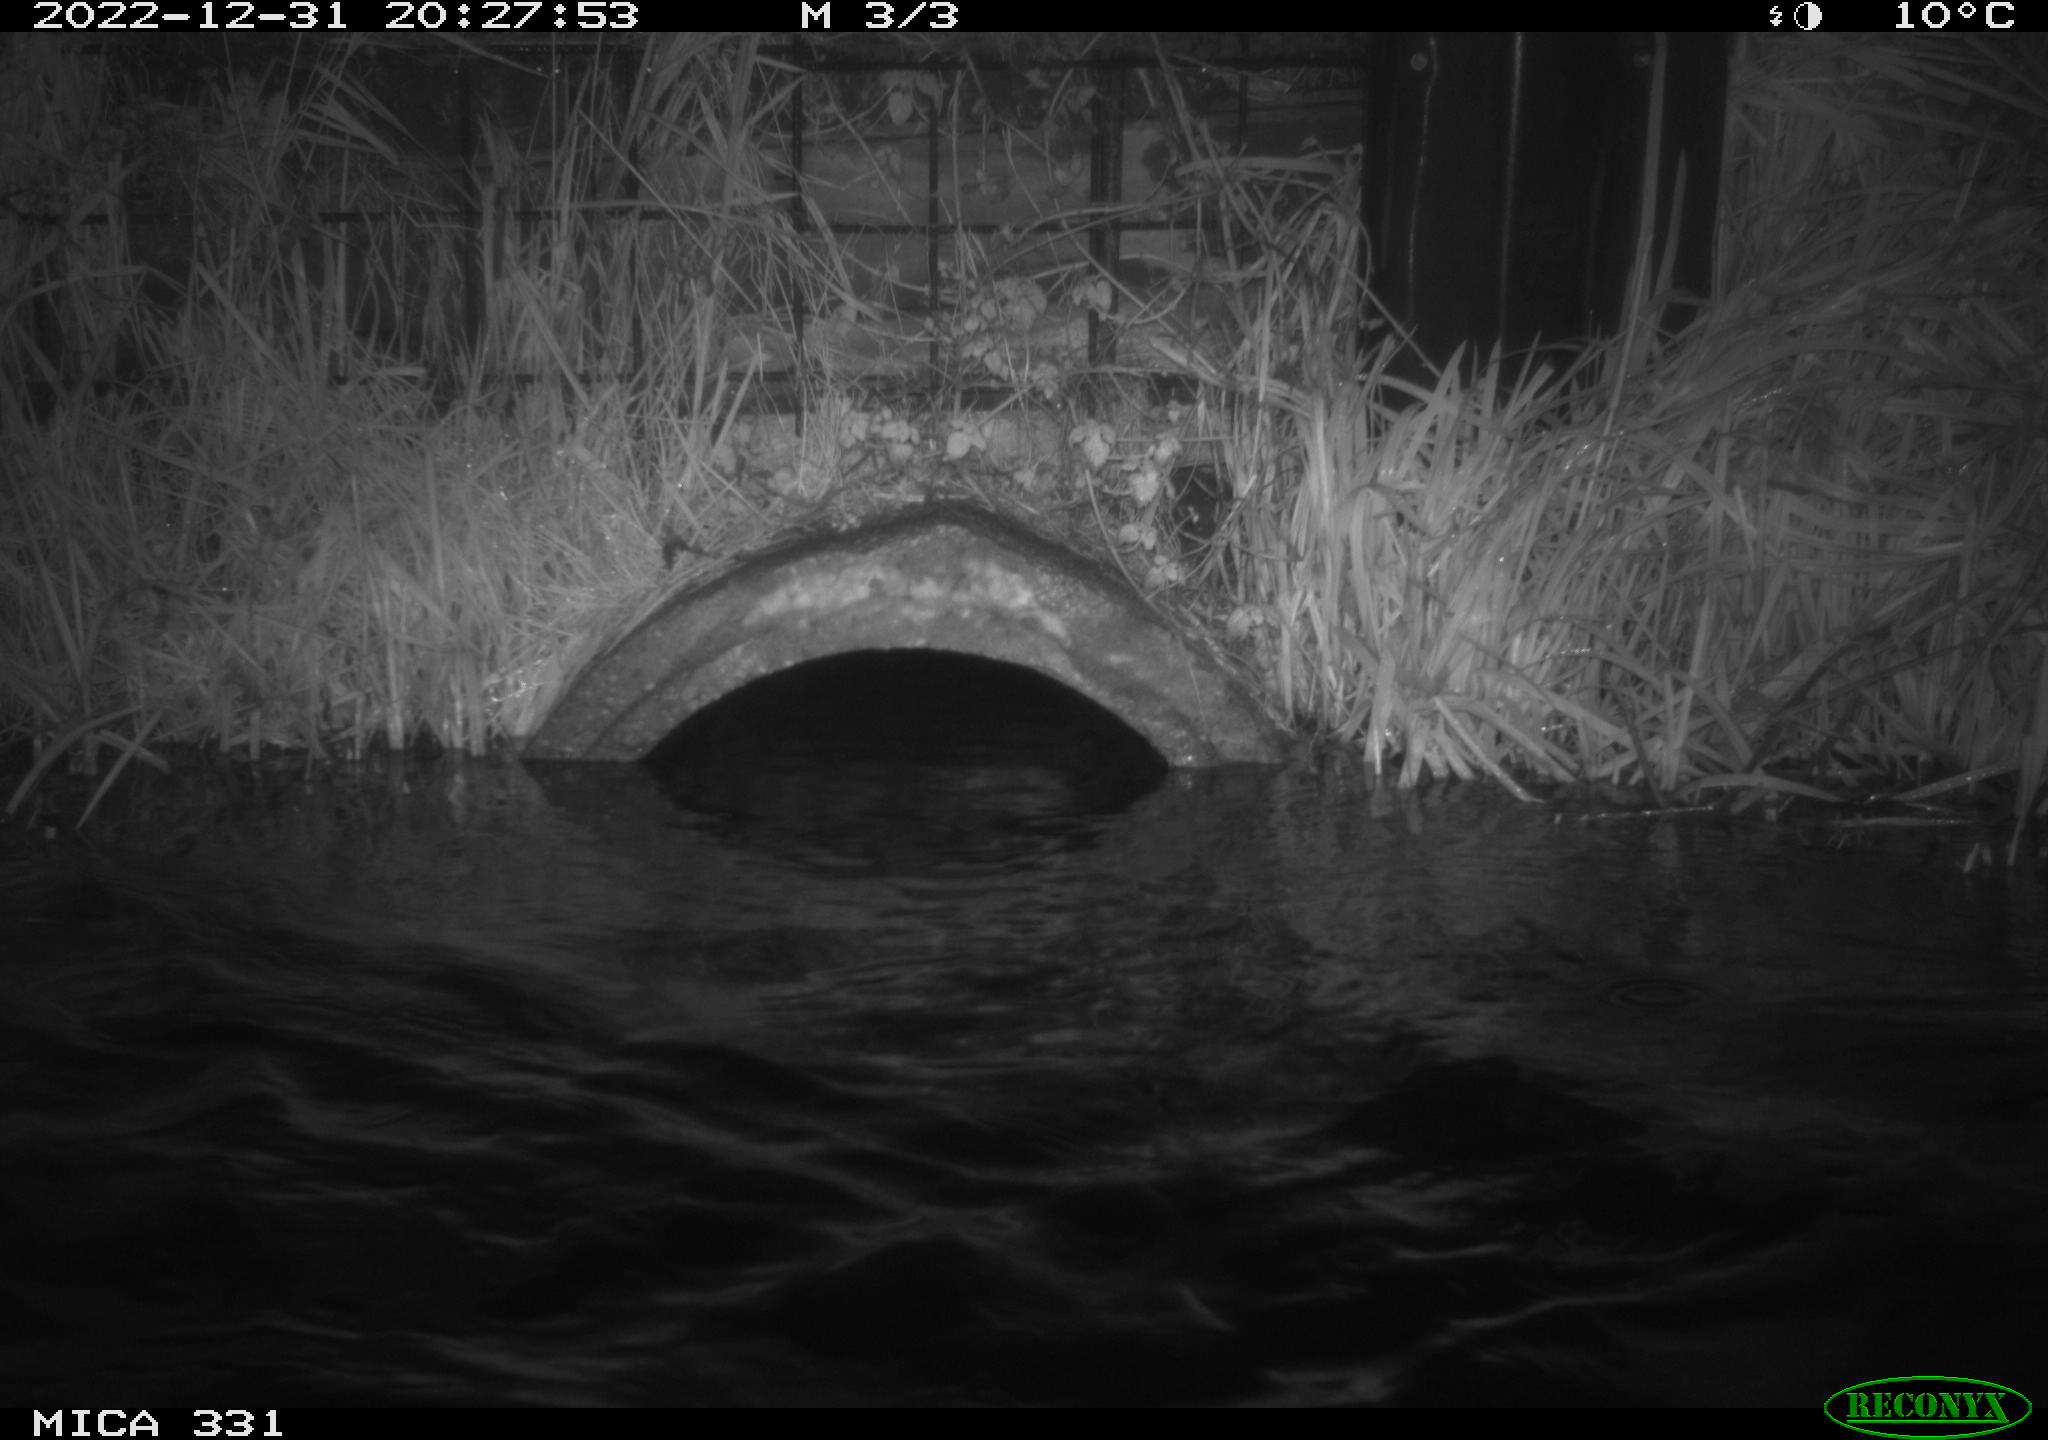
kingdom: Animalia
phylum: Chordata
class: Mammalia
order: Rodentia
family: Muridae
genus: Rattus
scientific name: Rattus norvegicus
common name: Brown rat
